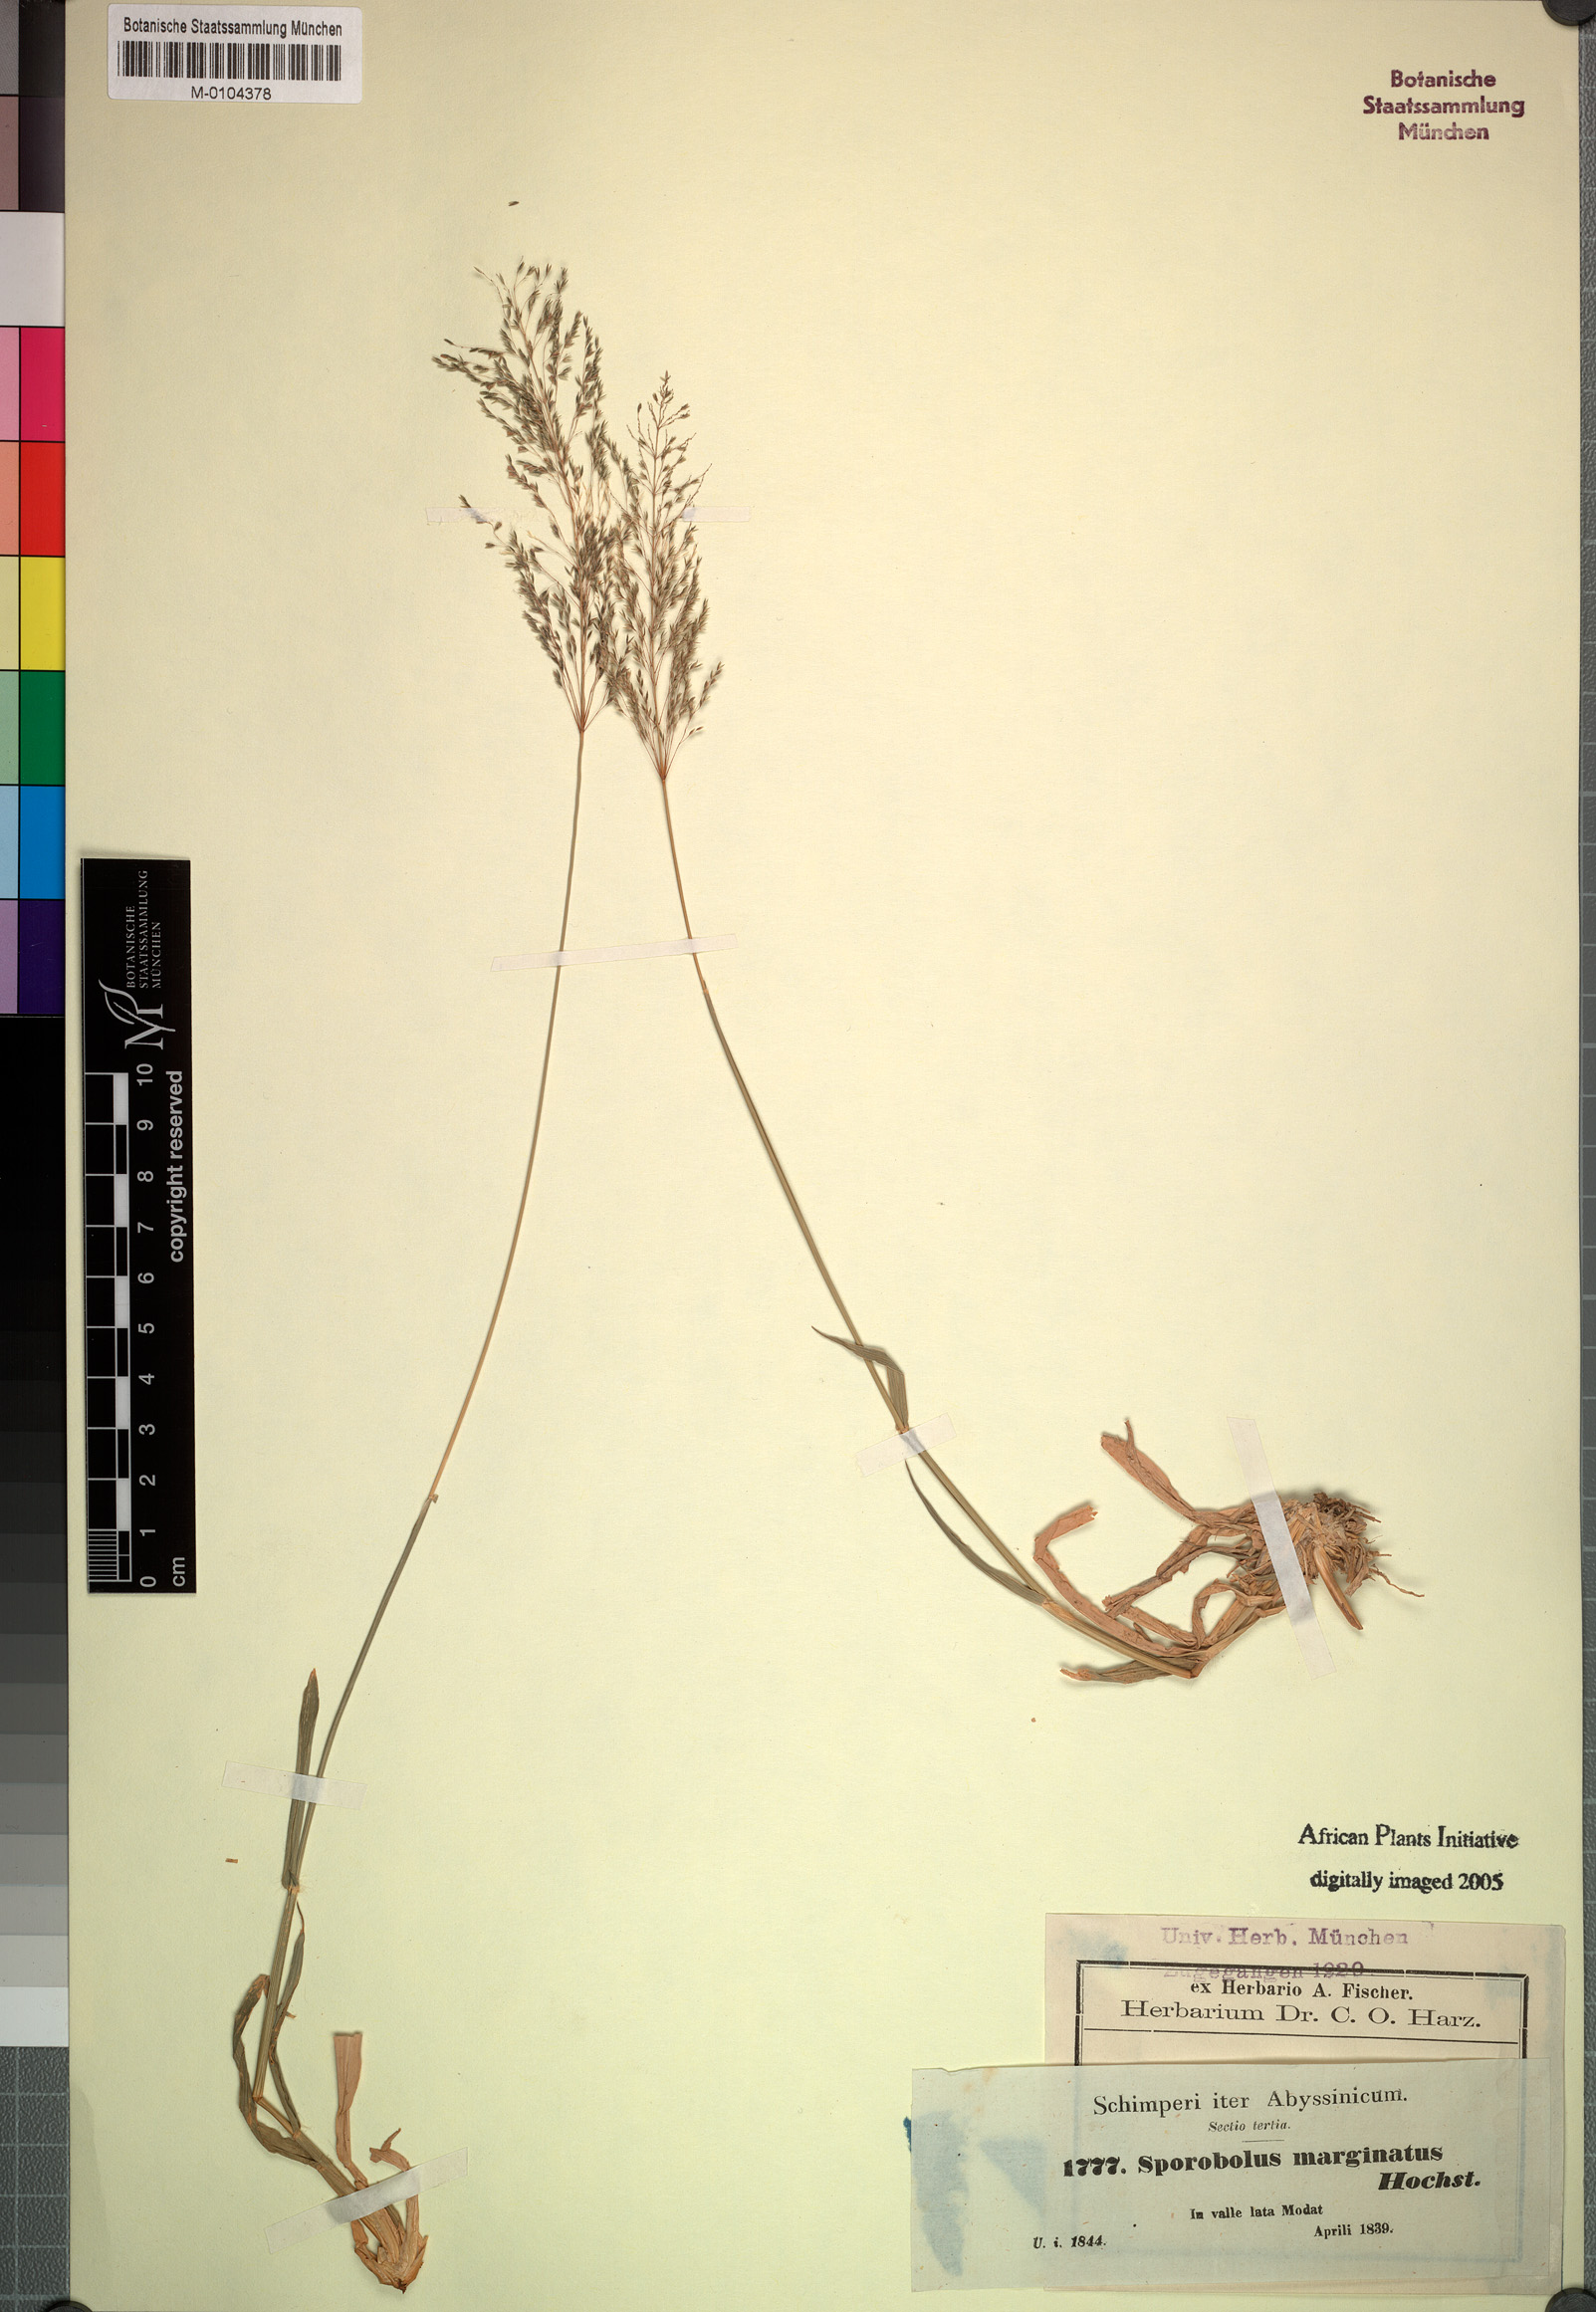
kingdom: Plantae
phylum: Tracheophyta
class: Liliopsida
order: Poales
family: Poaceae
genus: Sporobolus
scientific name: Sporobolus ioclados
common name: Pan dropseed
